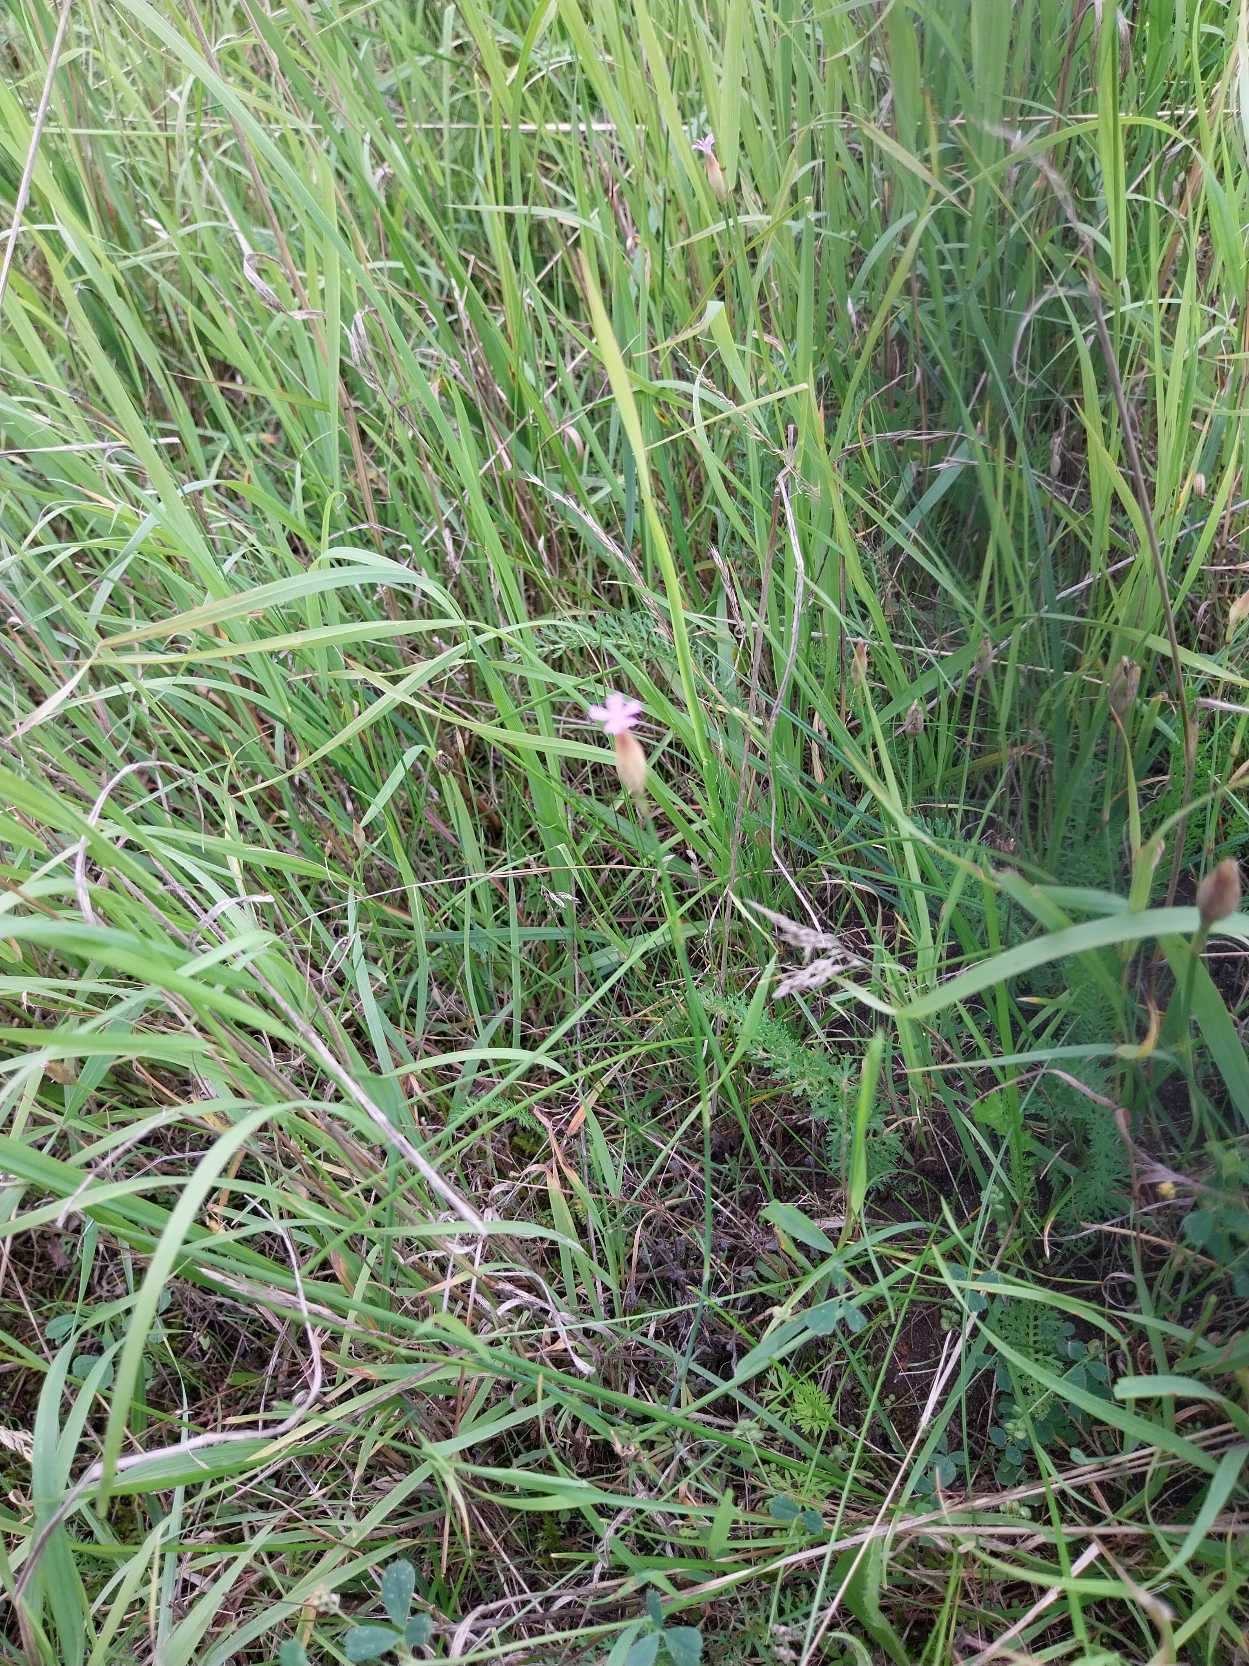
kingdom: Plantae
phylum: Tracheophyta
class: Magnoliopsida
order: Caryophyllales
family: Caryophyllaceae
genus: Petrorhagia
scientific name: Petrorhagia prolifera
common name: Knopnellike
